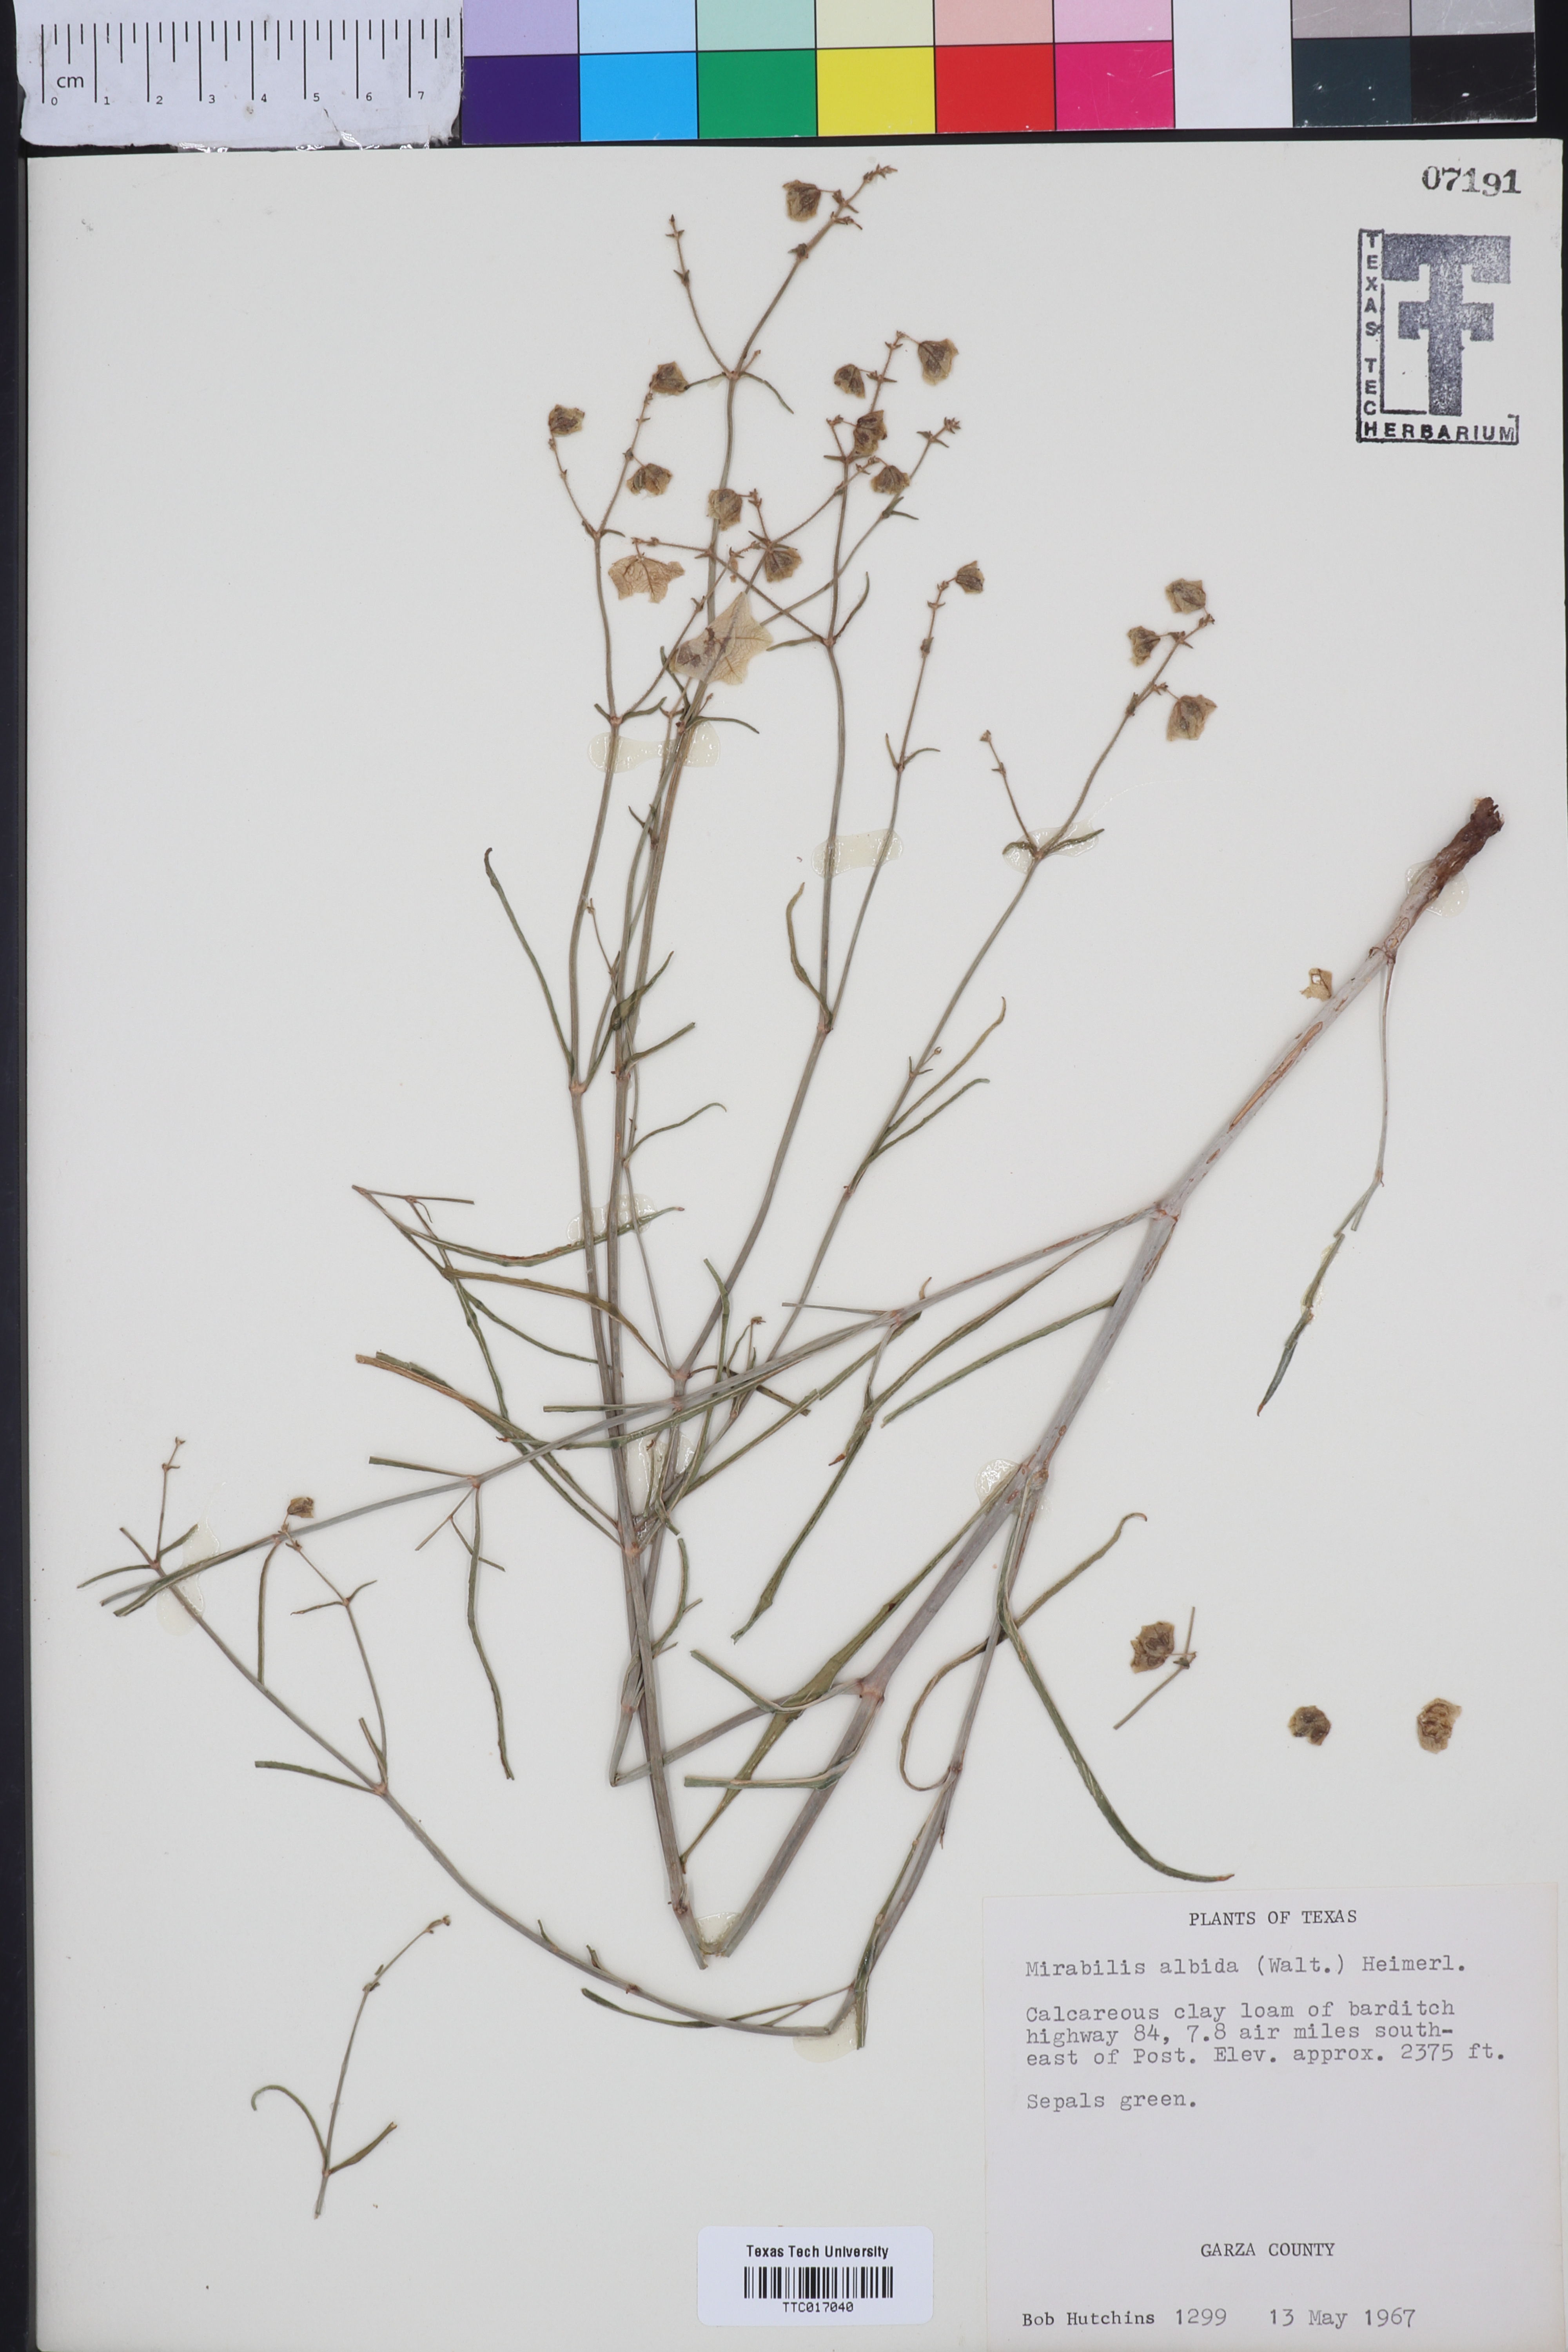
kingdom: Plantae
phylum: Tracheophyta
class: Magnoliopsida
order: Caryophyllales
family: Nyctaginaceae
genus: Mirabilis
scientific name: Mirabilis albida
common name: Hairy four-o'clock
